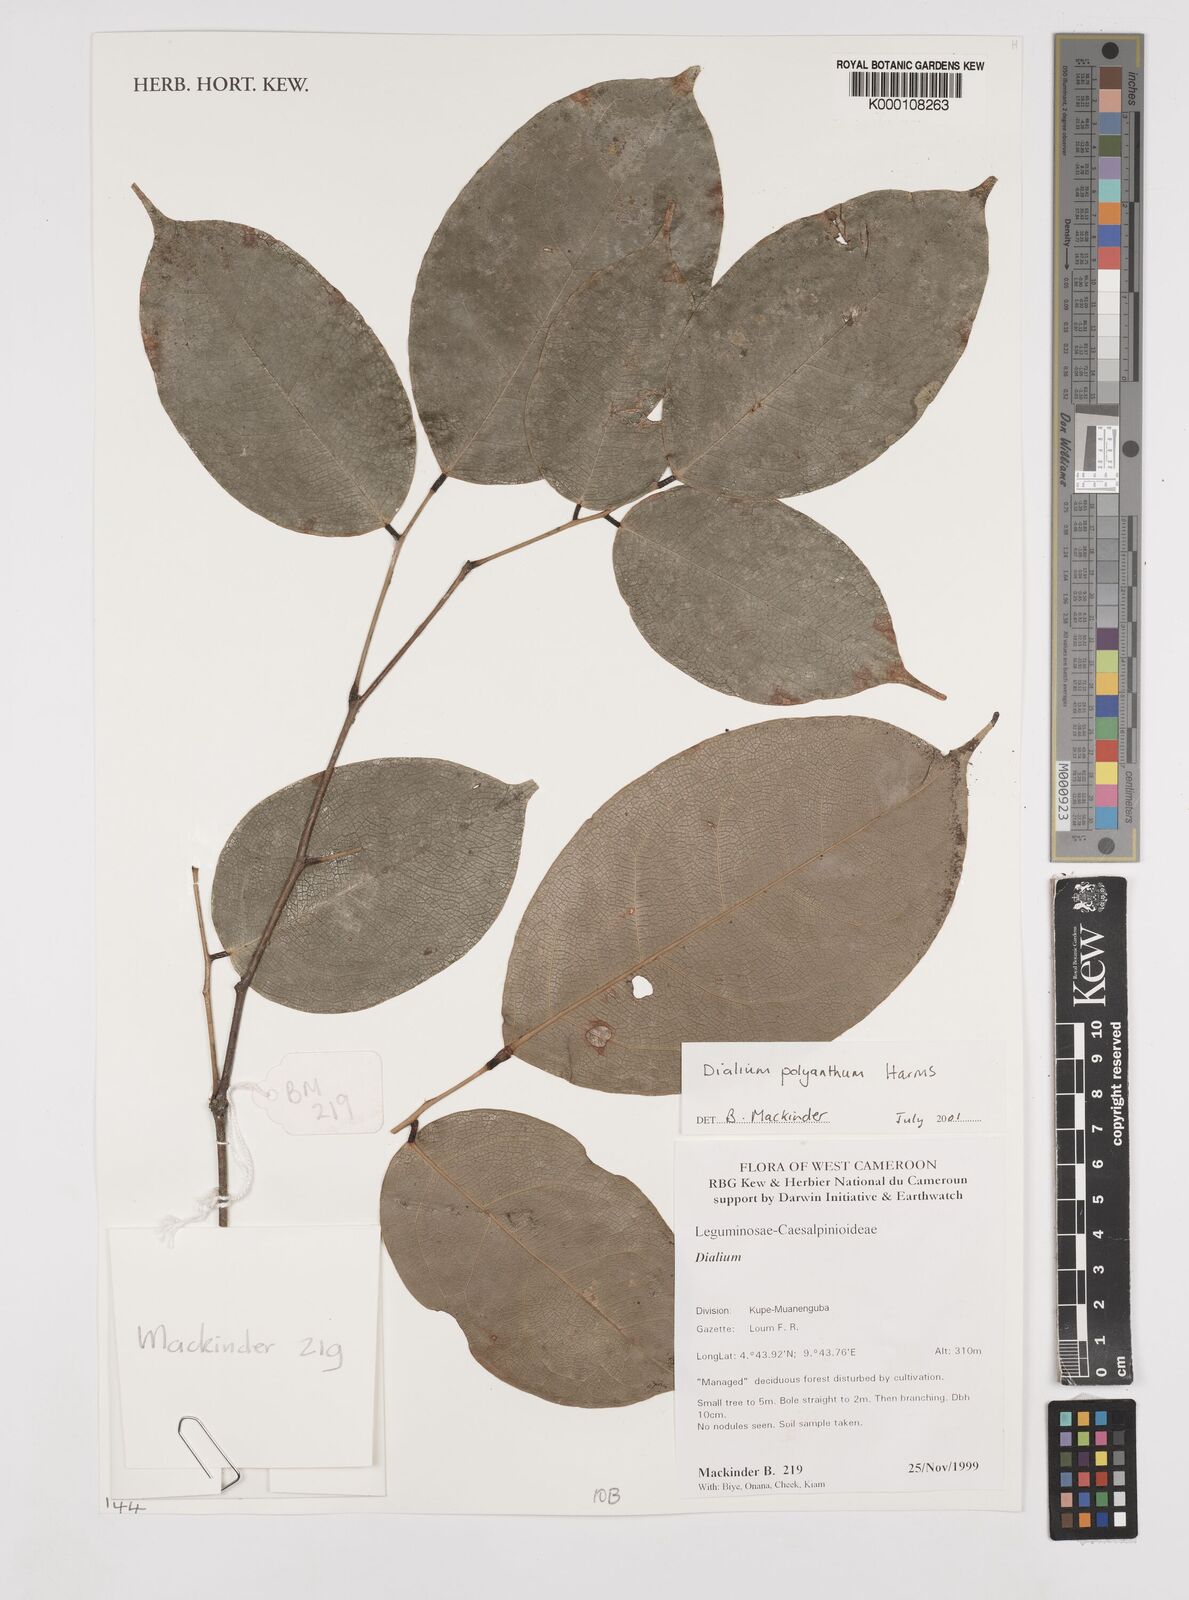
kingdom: Plantae
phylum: Tracheophyta
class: Magnoliopsida
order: Fabales
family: Fabaceae
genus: Dialium
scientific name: Dialium polyanthum
